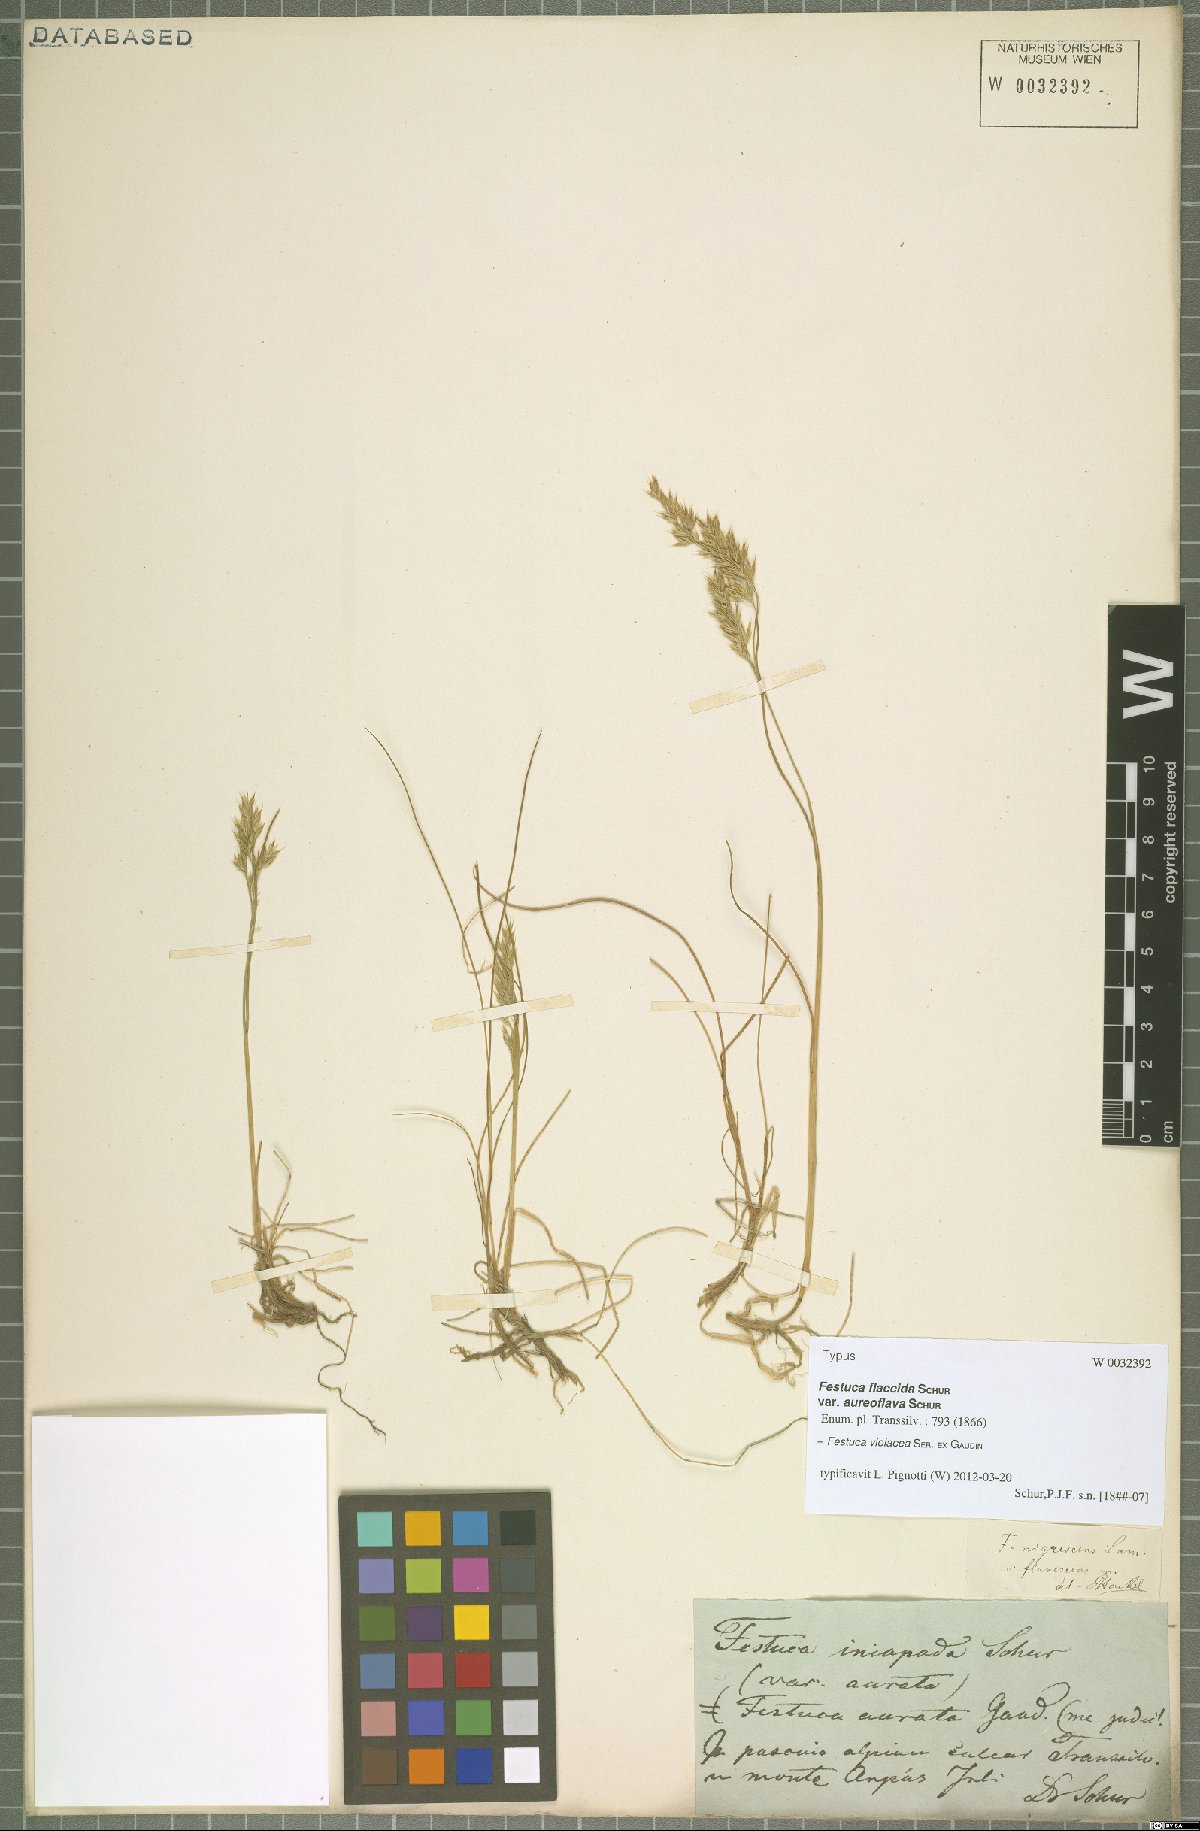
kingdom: Plantae
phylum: Tracheophyta
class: Liliopsida
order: Poales
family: Poaceae
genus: Festuca
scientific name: Festuca violacea
